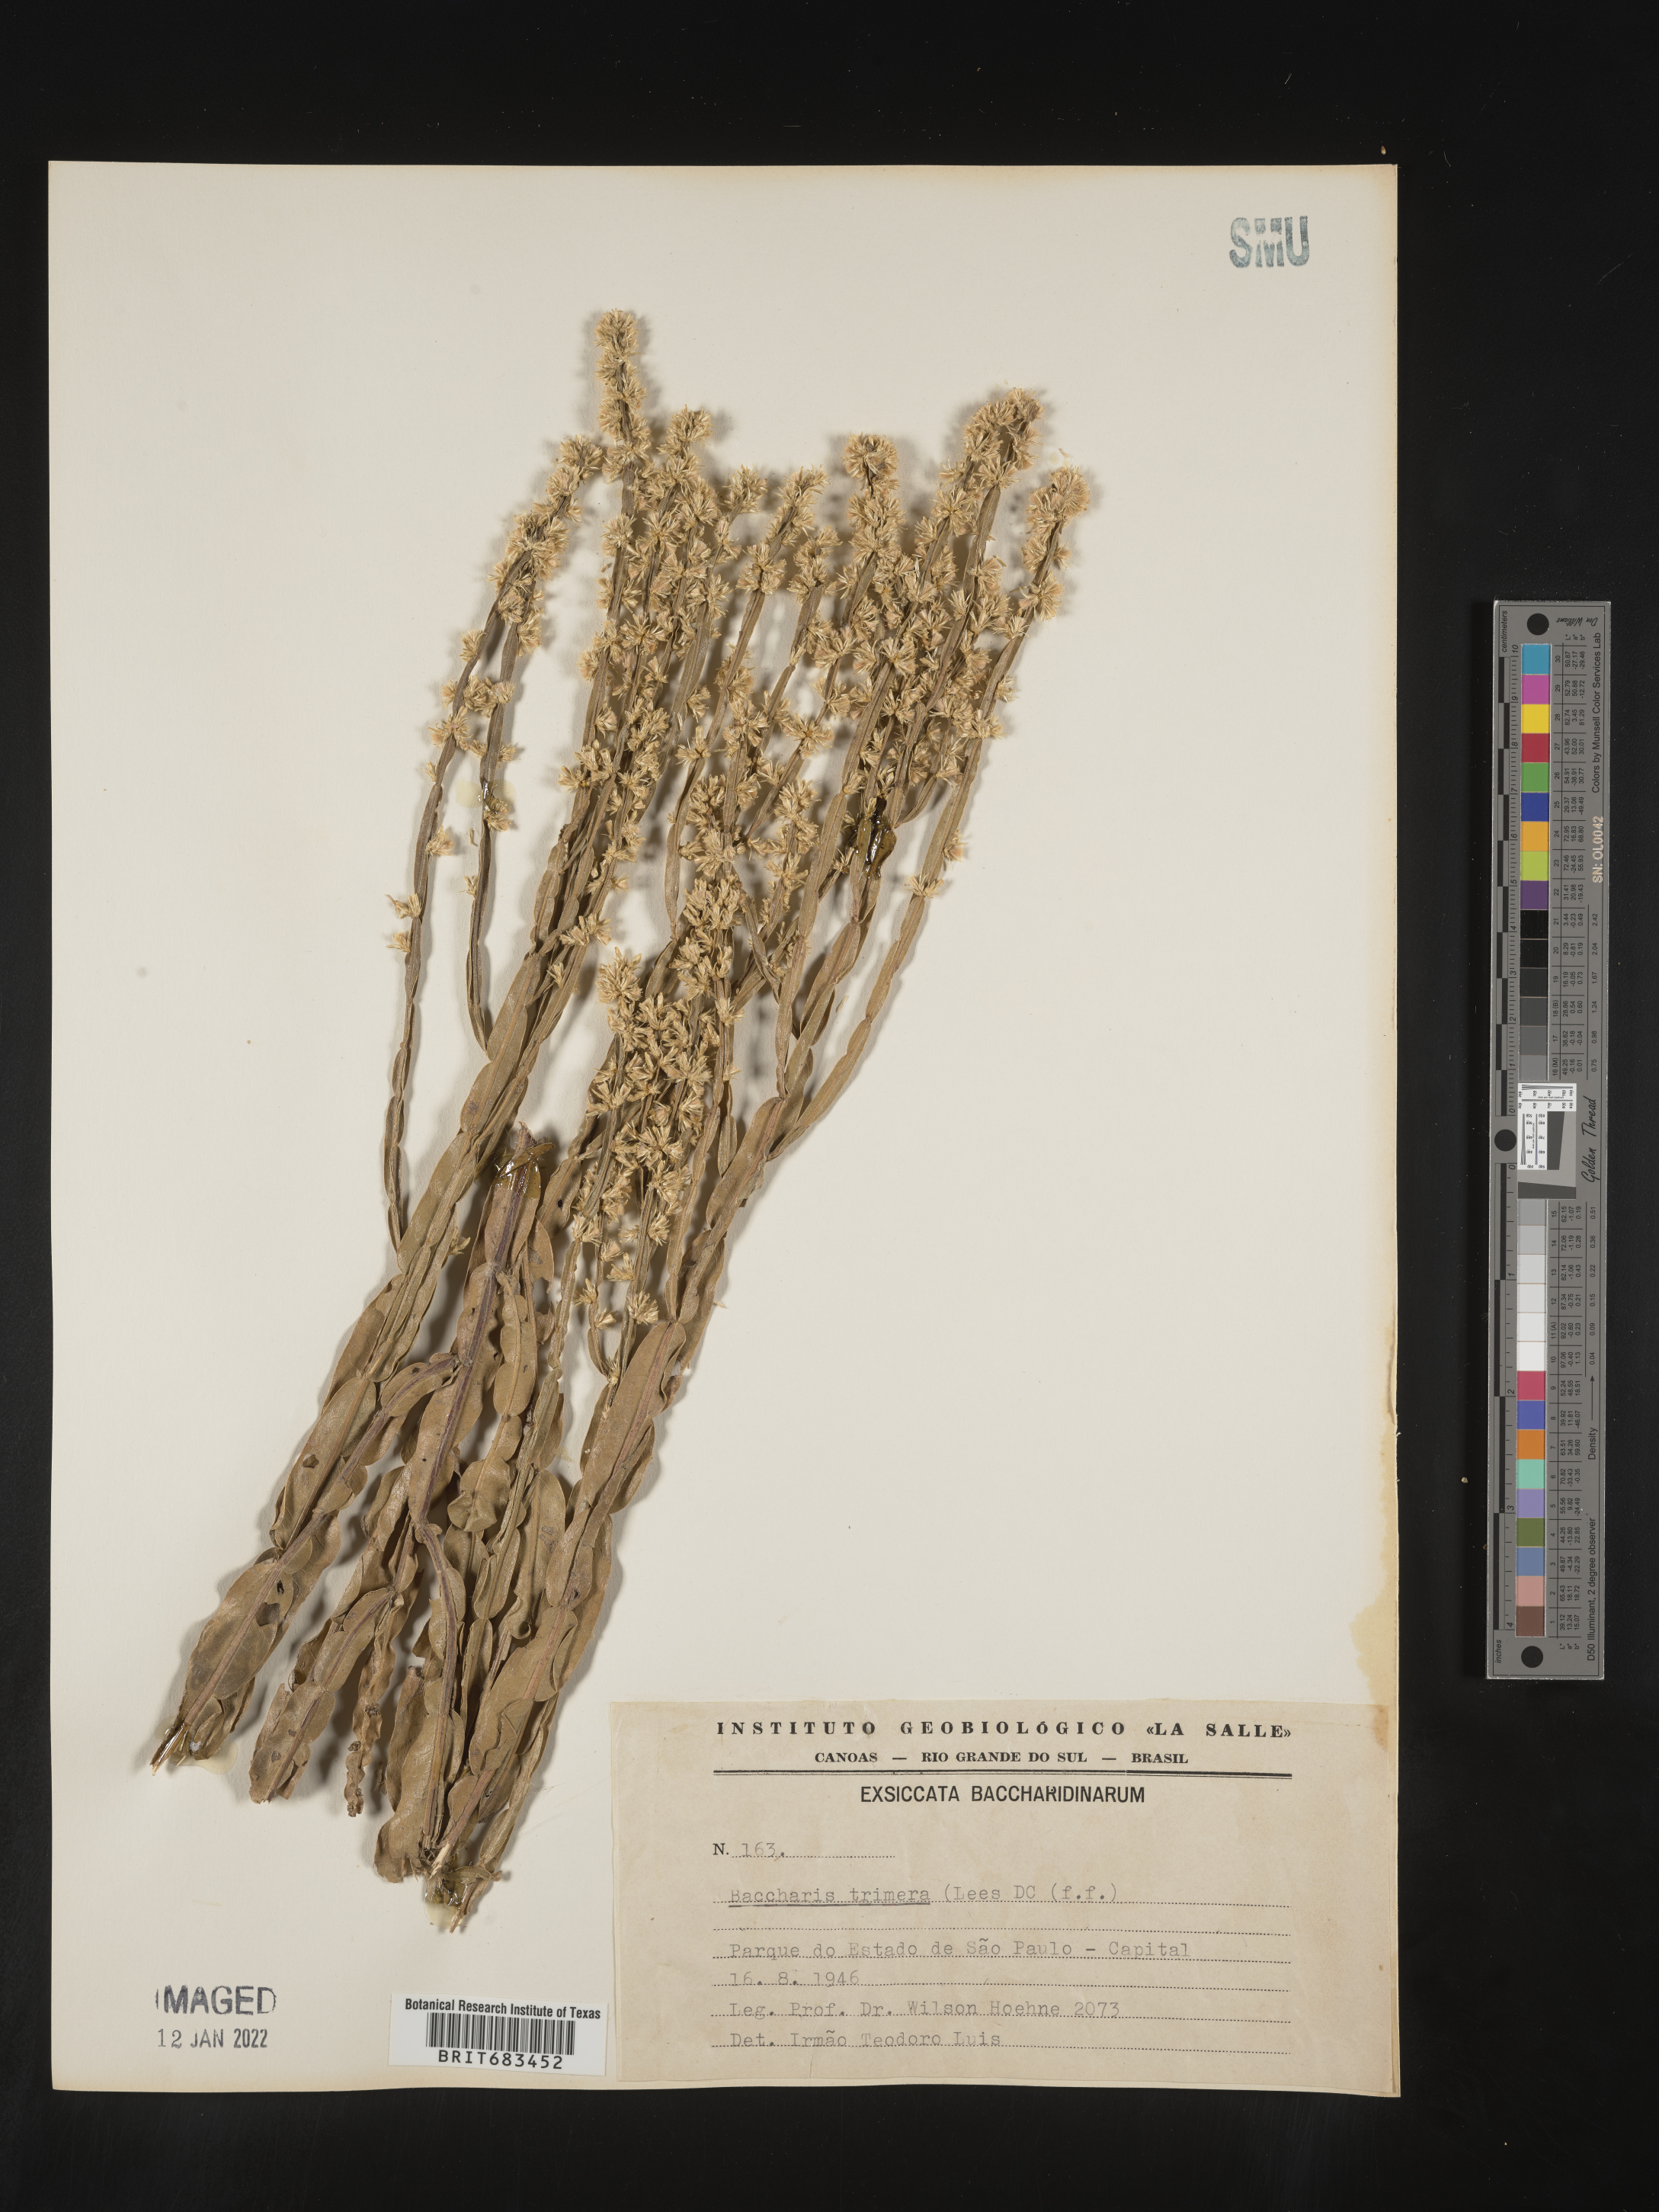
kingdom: Plantae
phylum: Tracheophyta
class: Magnoliopsida
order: Asterales
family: Asteraceae
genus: Baccharis
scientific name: Baccharis
